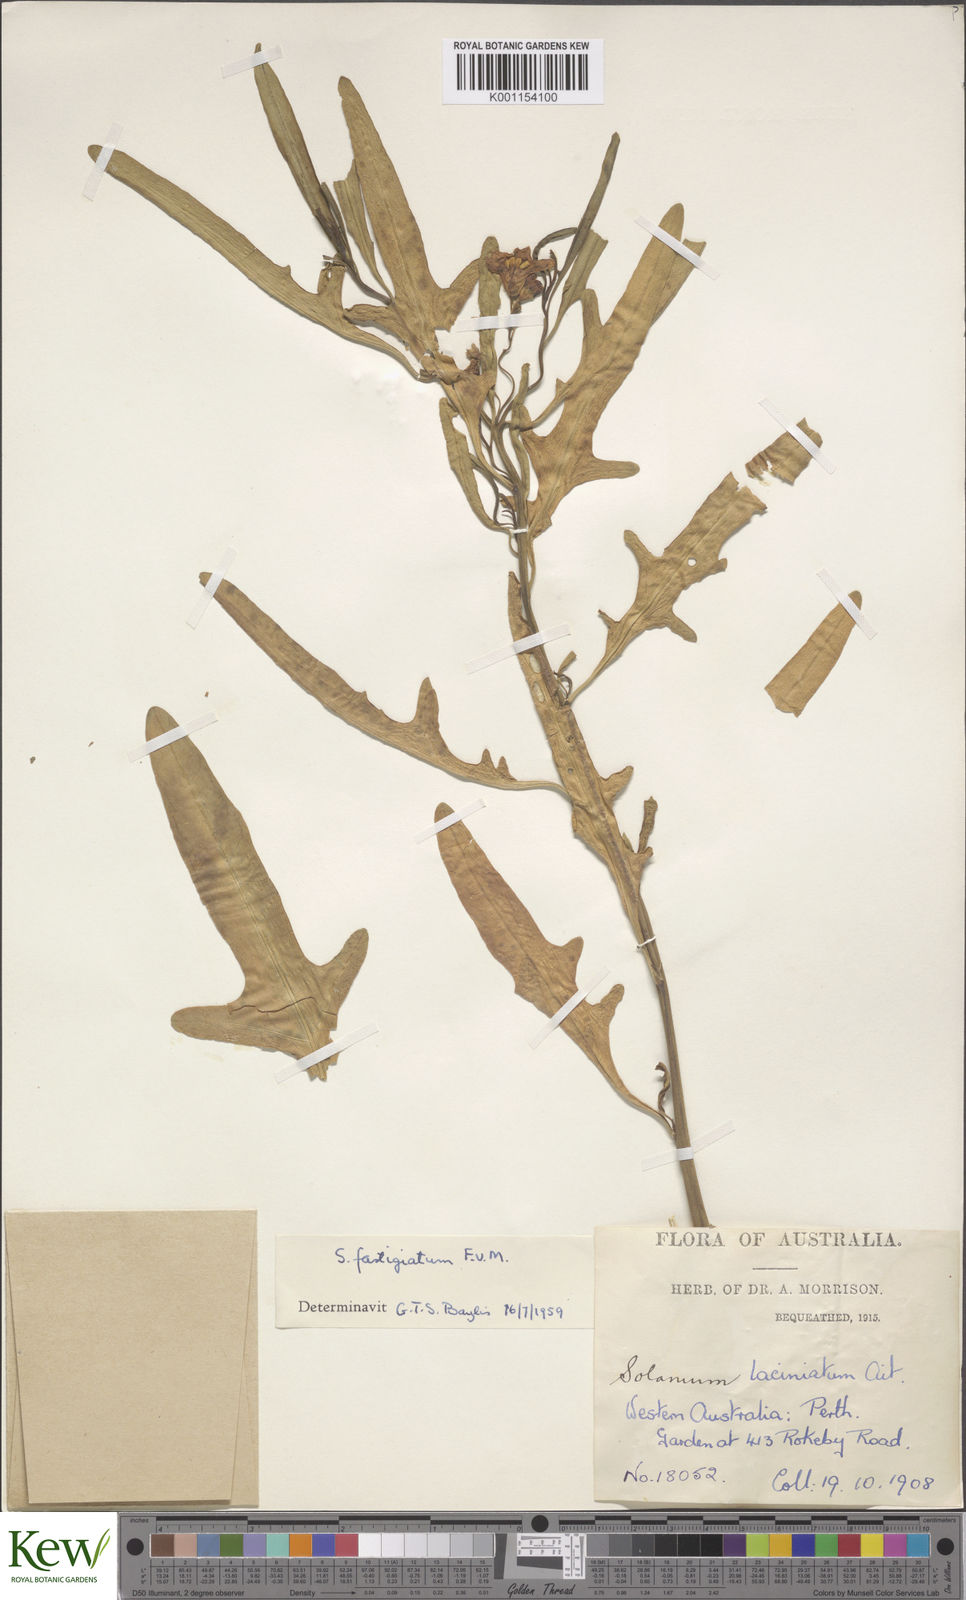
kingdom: Plantae
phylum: Tracheophyta
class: Magnoliopsida
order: Solanales
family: Solanaceae
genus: Solanum
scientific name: Solanum symonii
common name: South australian kangaroo-apple
